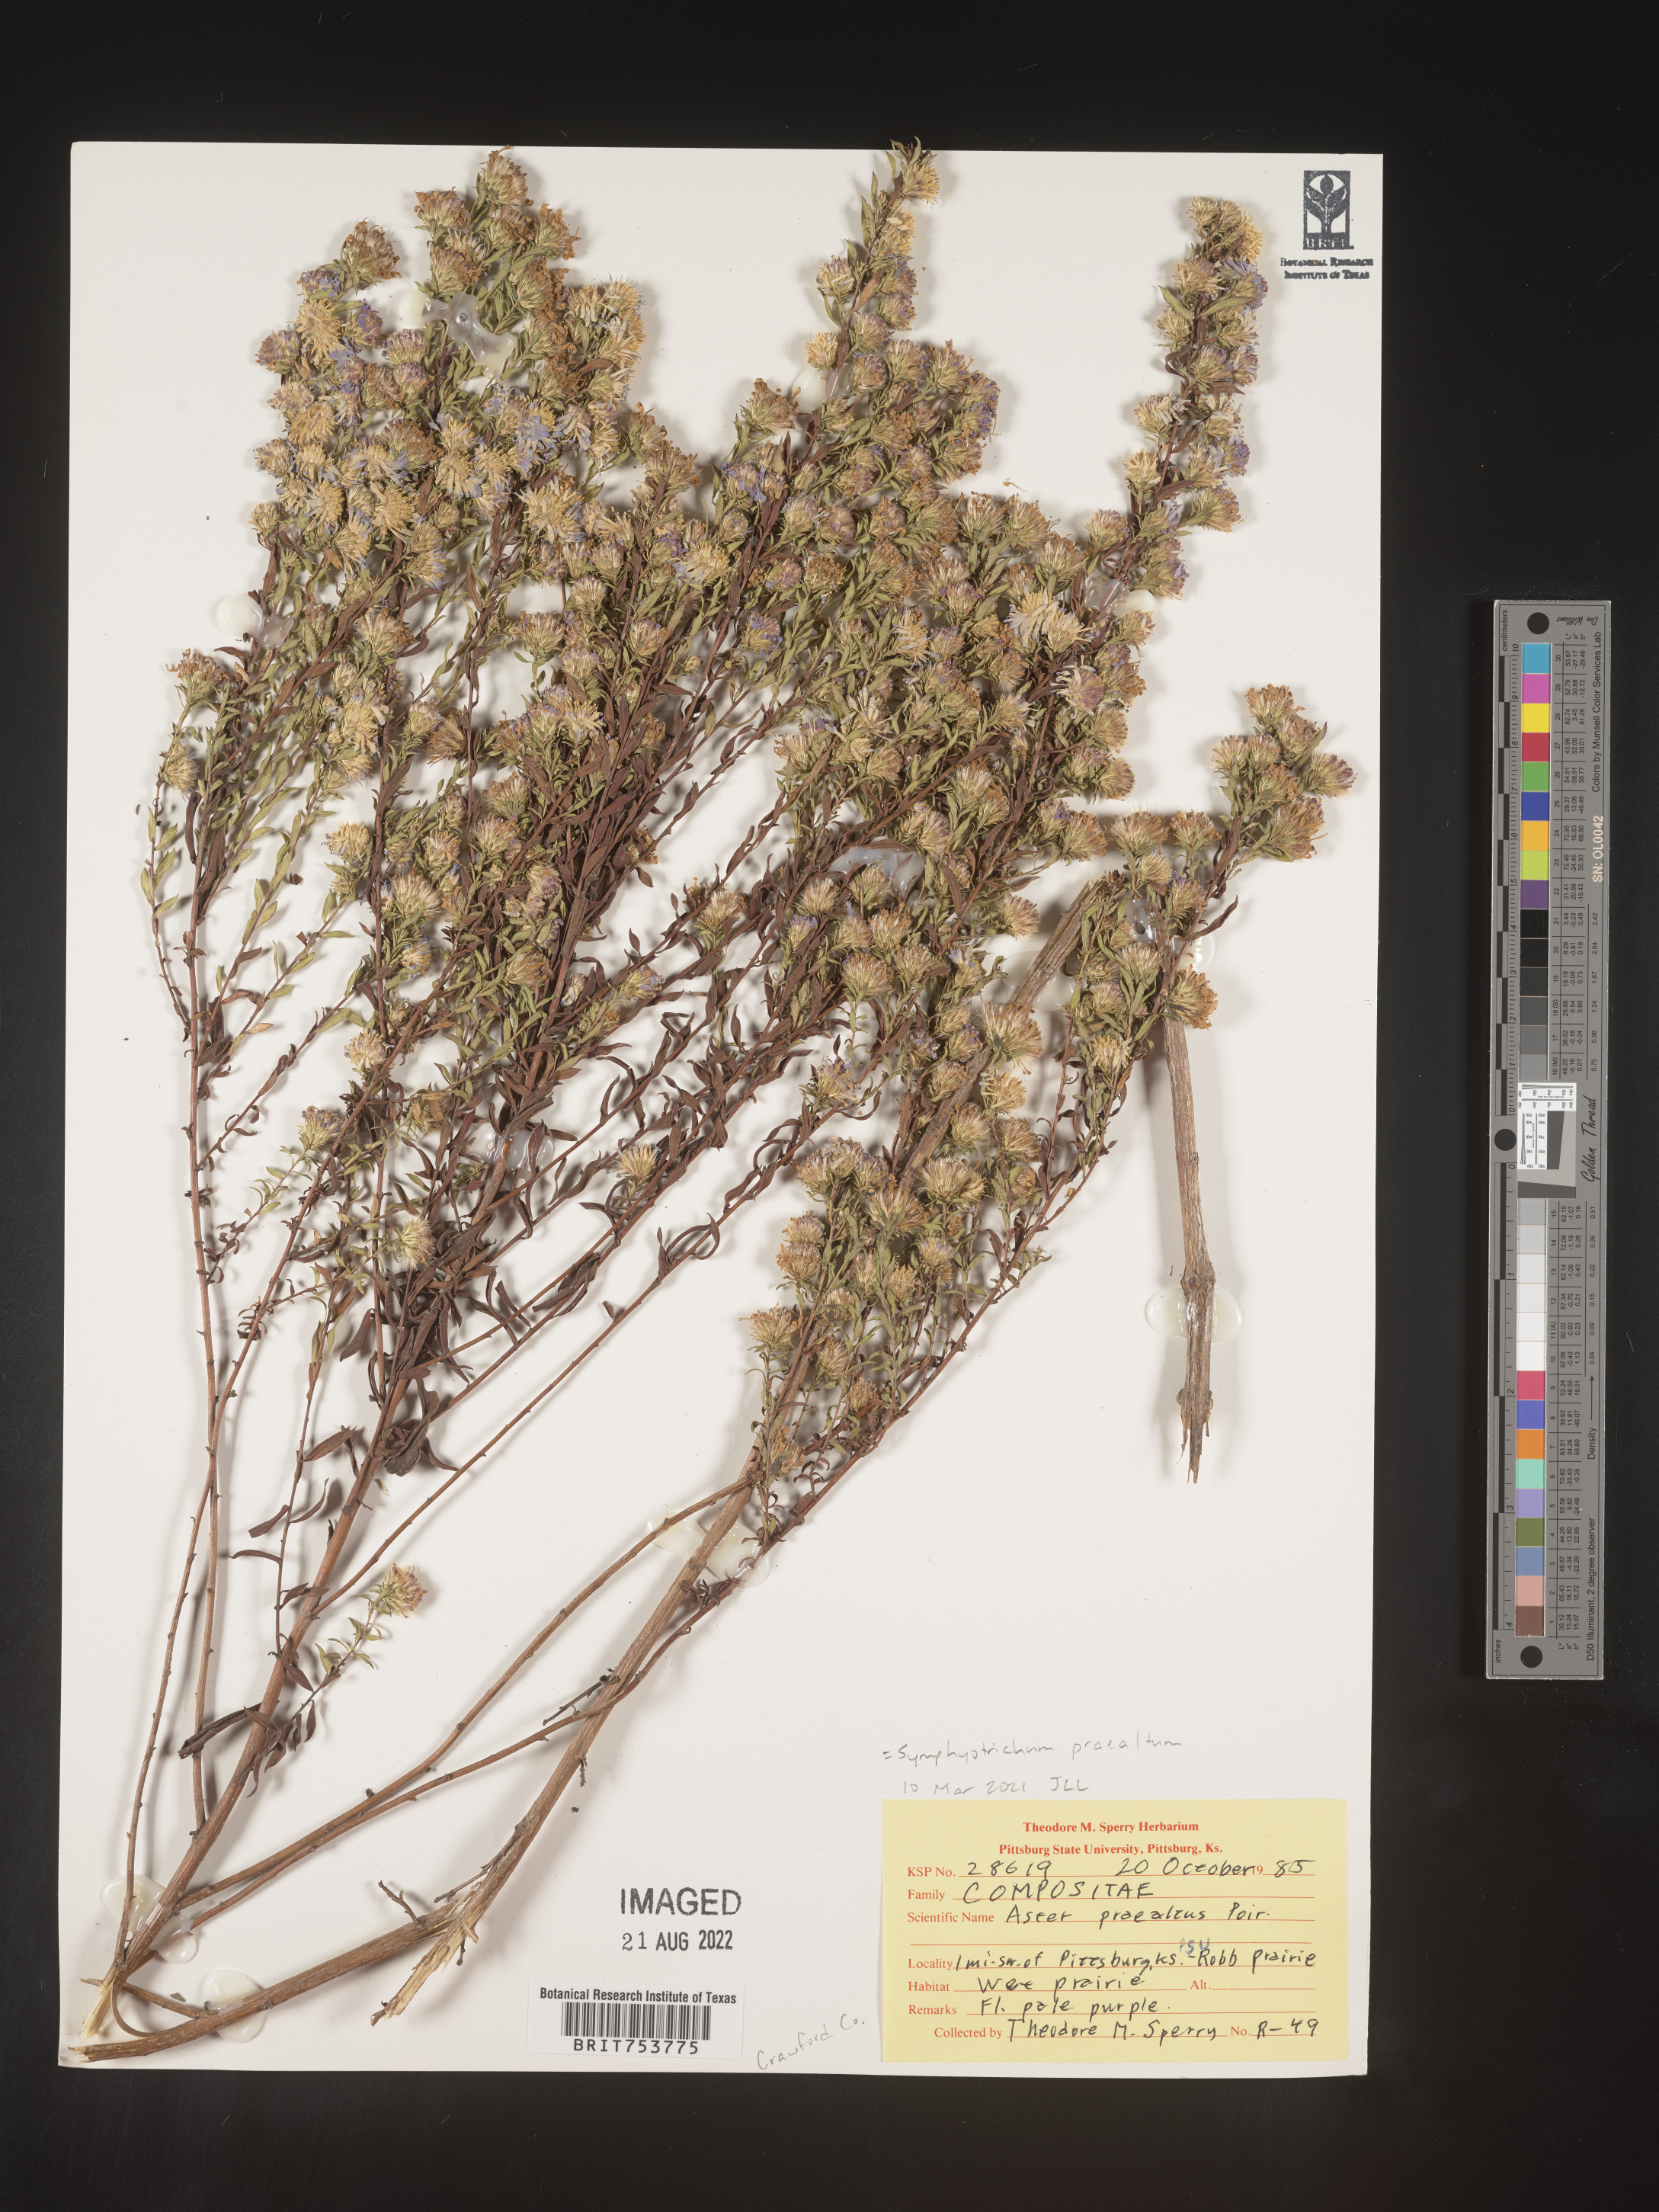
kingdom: Plantae
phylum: Tracheophyta
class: Magnoliopsida
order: Asterales
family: Asteraceae
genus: Symphyotrichum
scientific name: Symphyotrichum praealtum
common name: Willow aster
